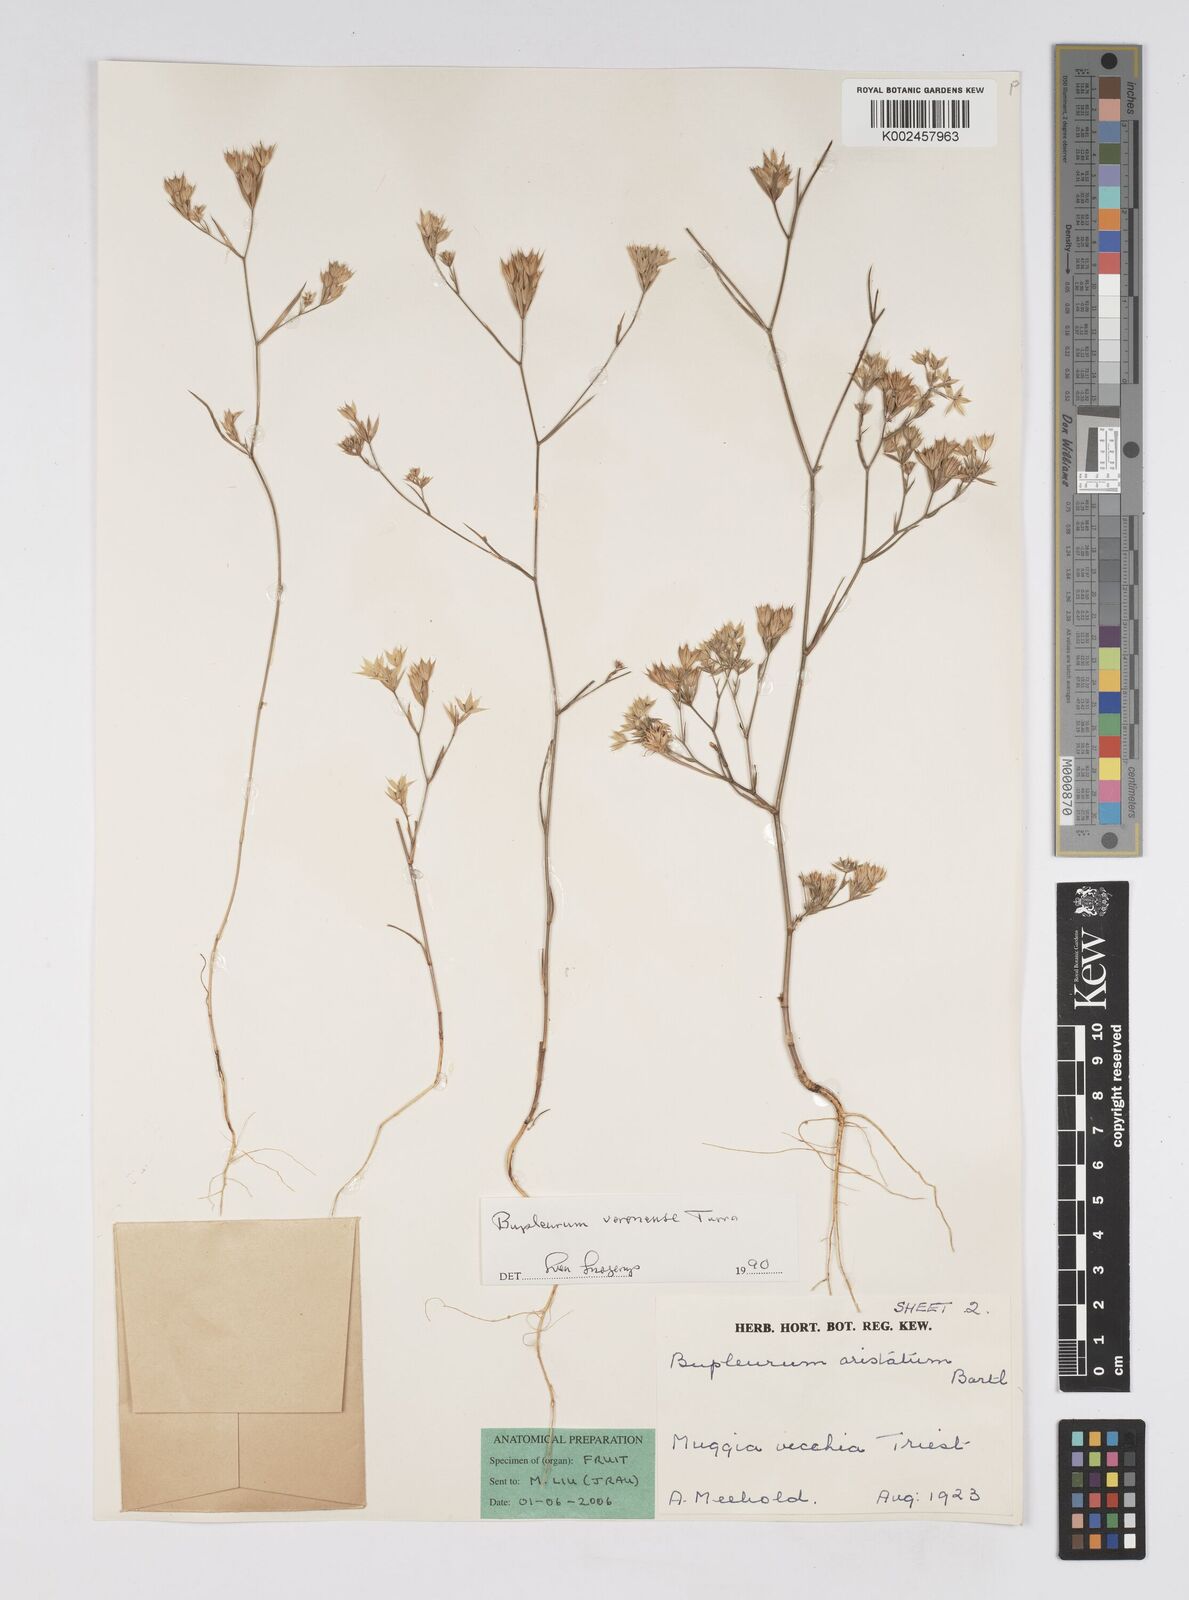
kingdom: Plantae
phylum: Tracheophyta
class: Magnoliopsida
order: Apiales
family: Apiaceae
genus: Bupleurum
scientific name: Bupleurum glumaceum
